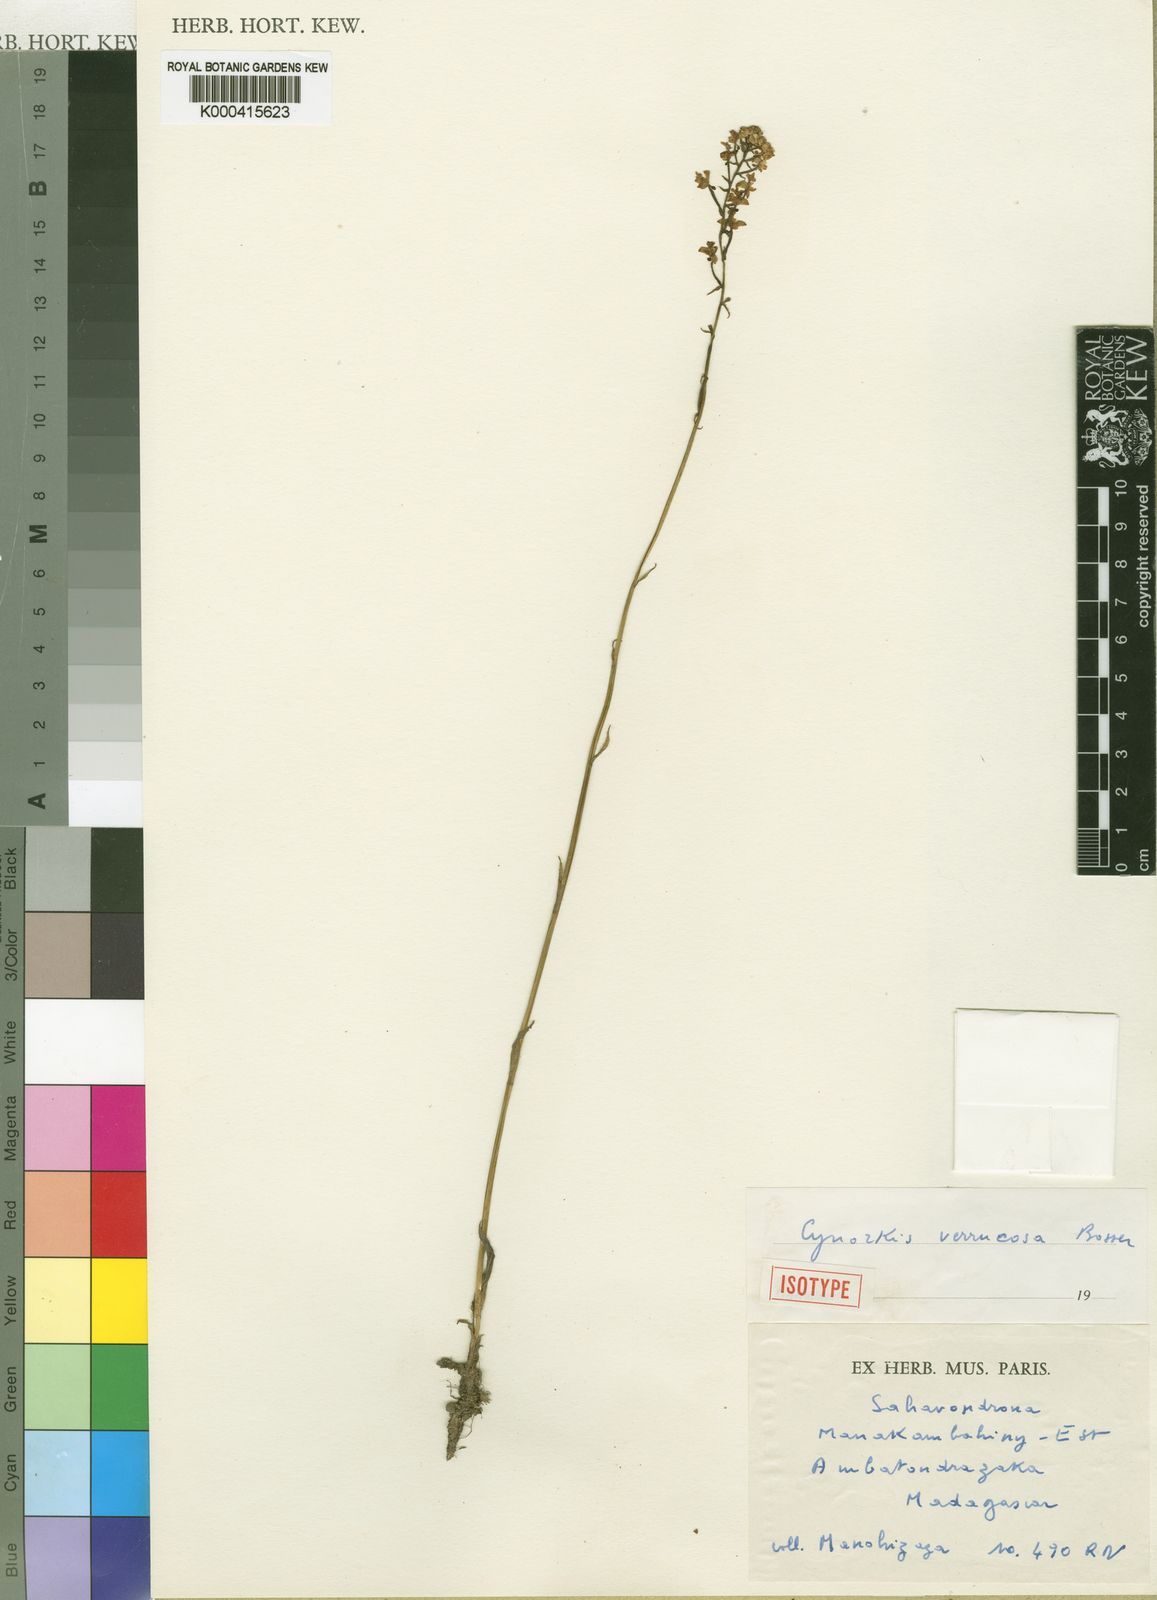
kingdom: Plantae
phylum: Tracheophyta
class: Liliopsida
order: Asparagales
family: Orchidaceae
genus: Cynorkis
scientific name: Cynorkis verrucosa
